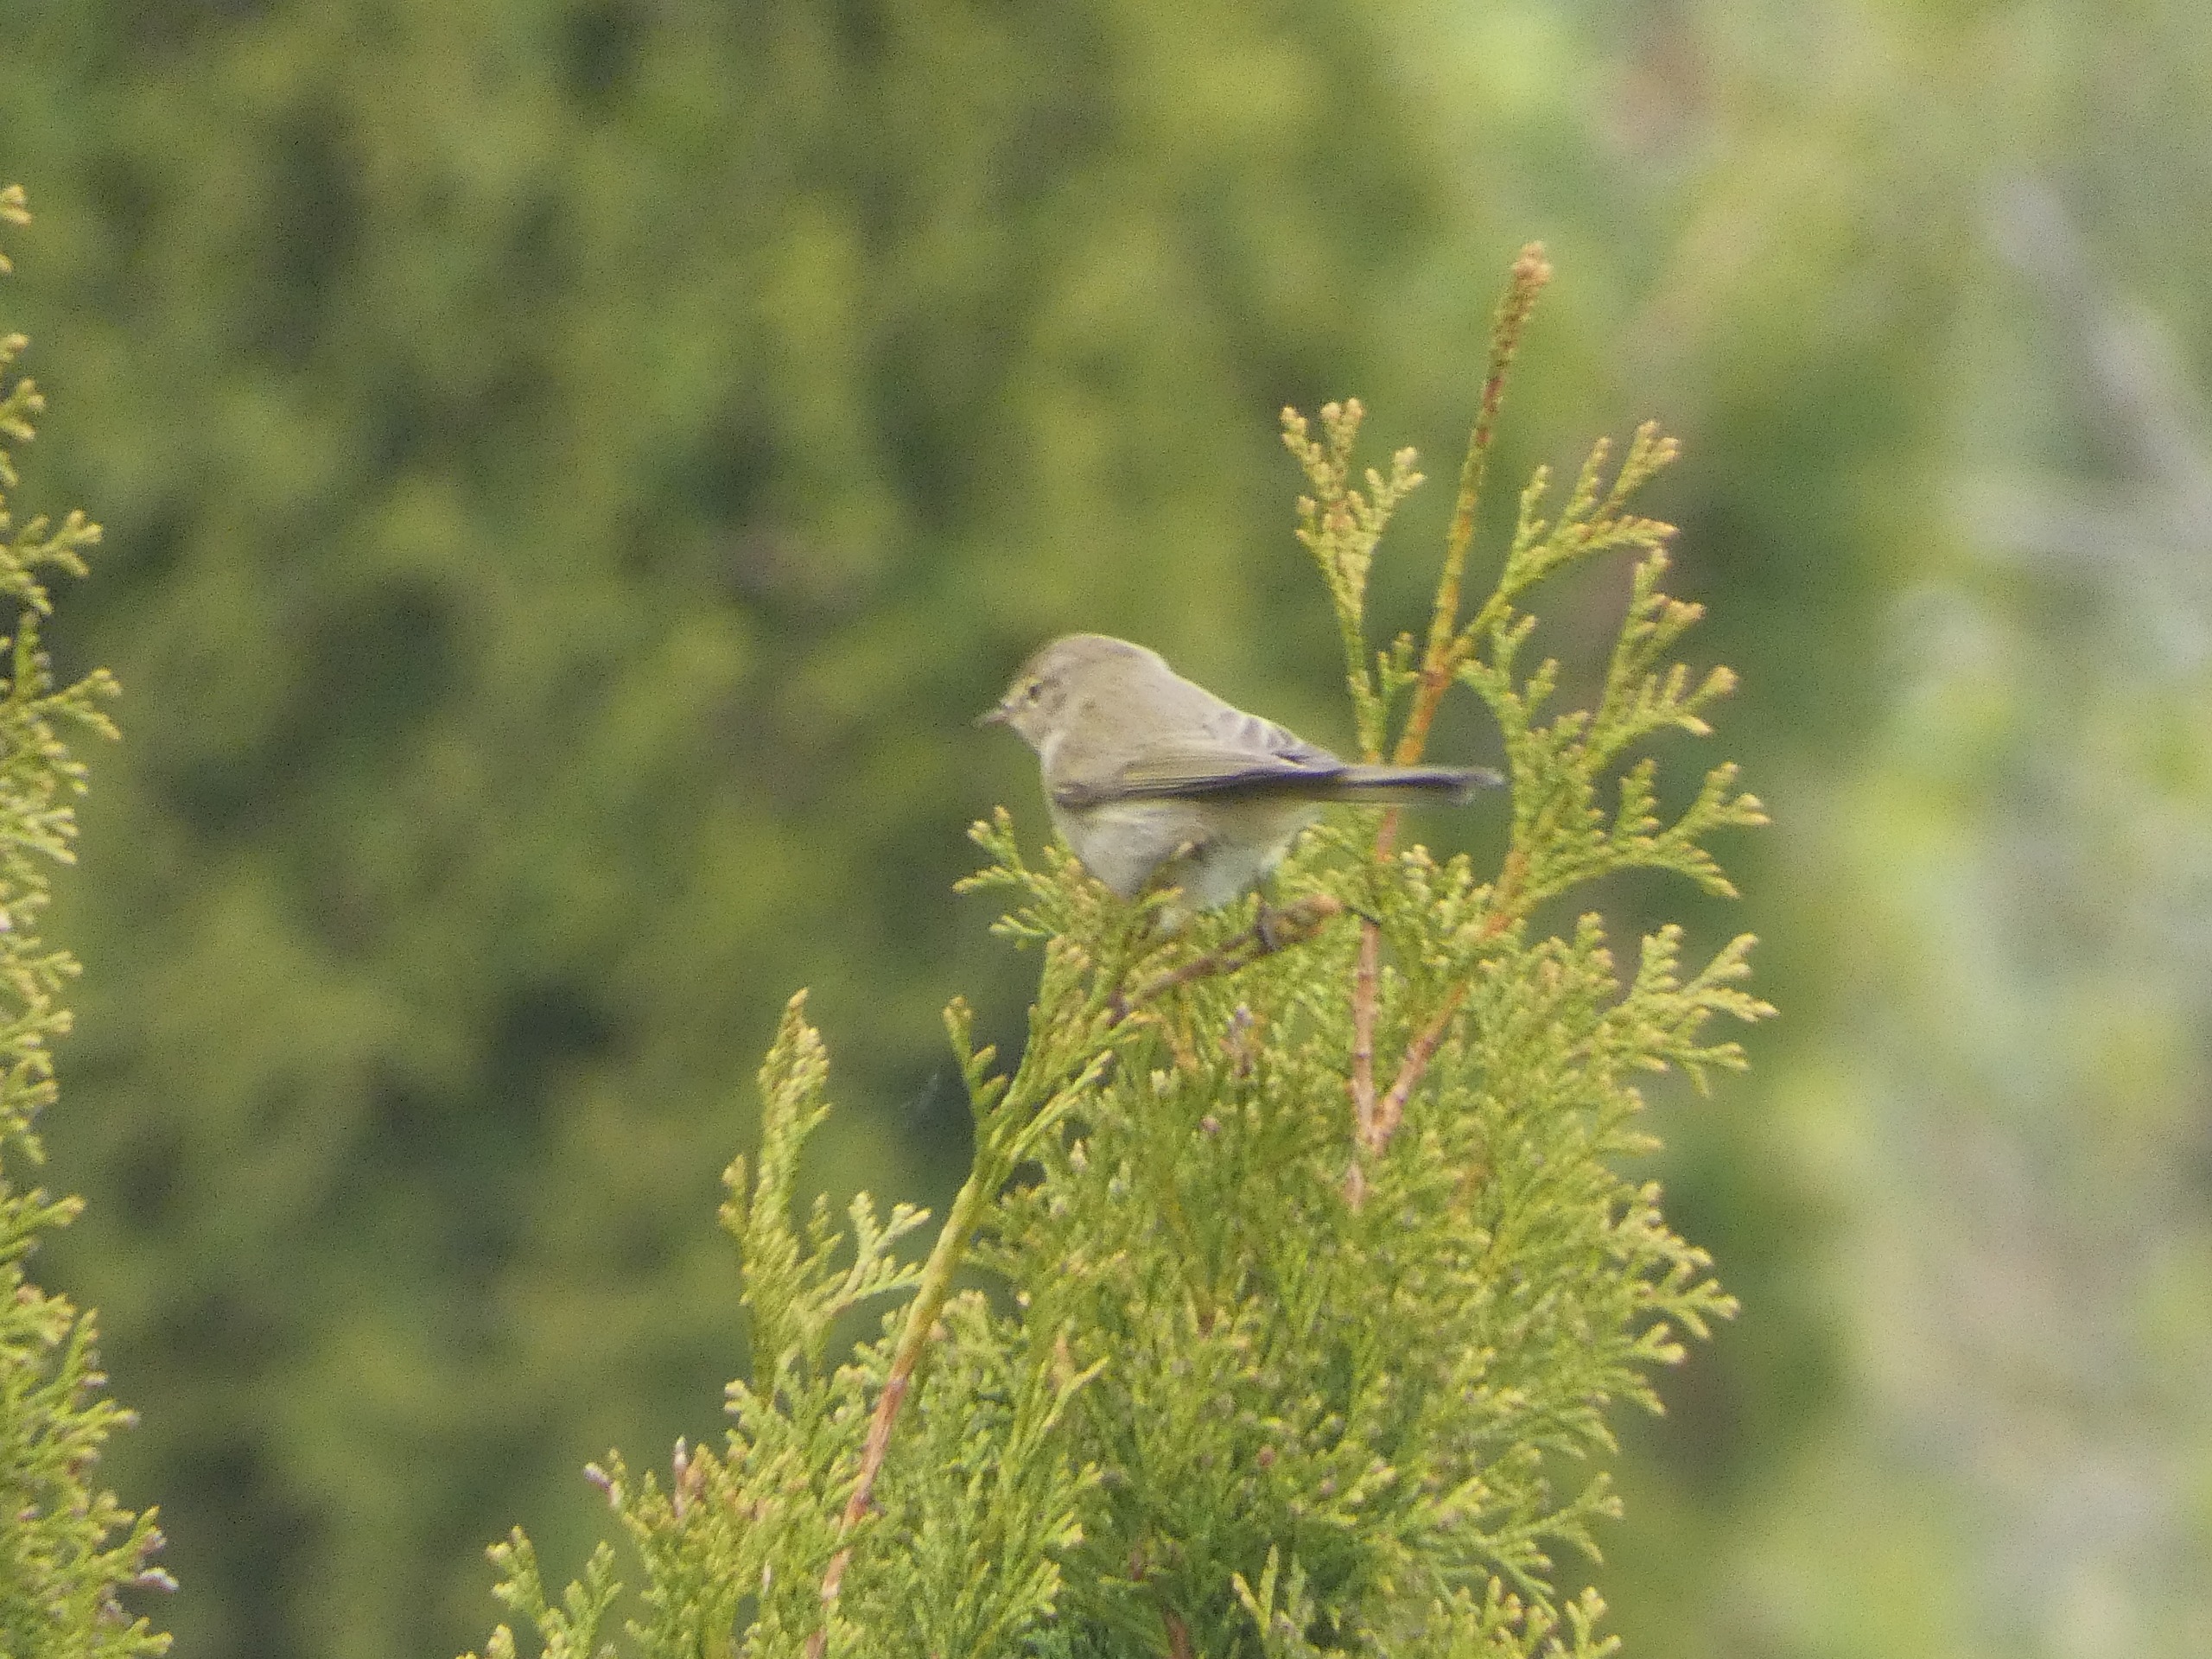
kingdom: Animalia
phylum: Chordata
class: Aves
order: Passeriformes
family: Phylloscopidae
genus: Phylloscopus
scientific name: Phylloscopus collybita
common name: Gransanger
